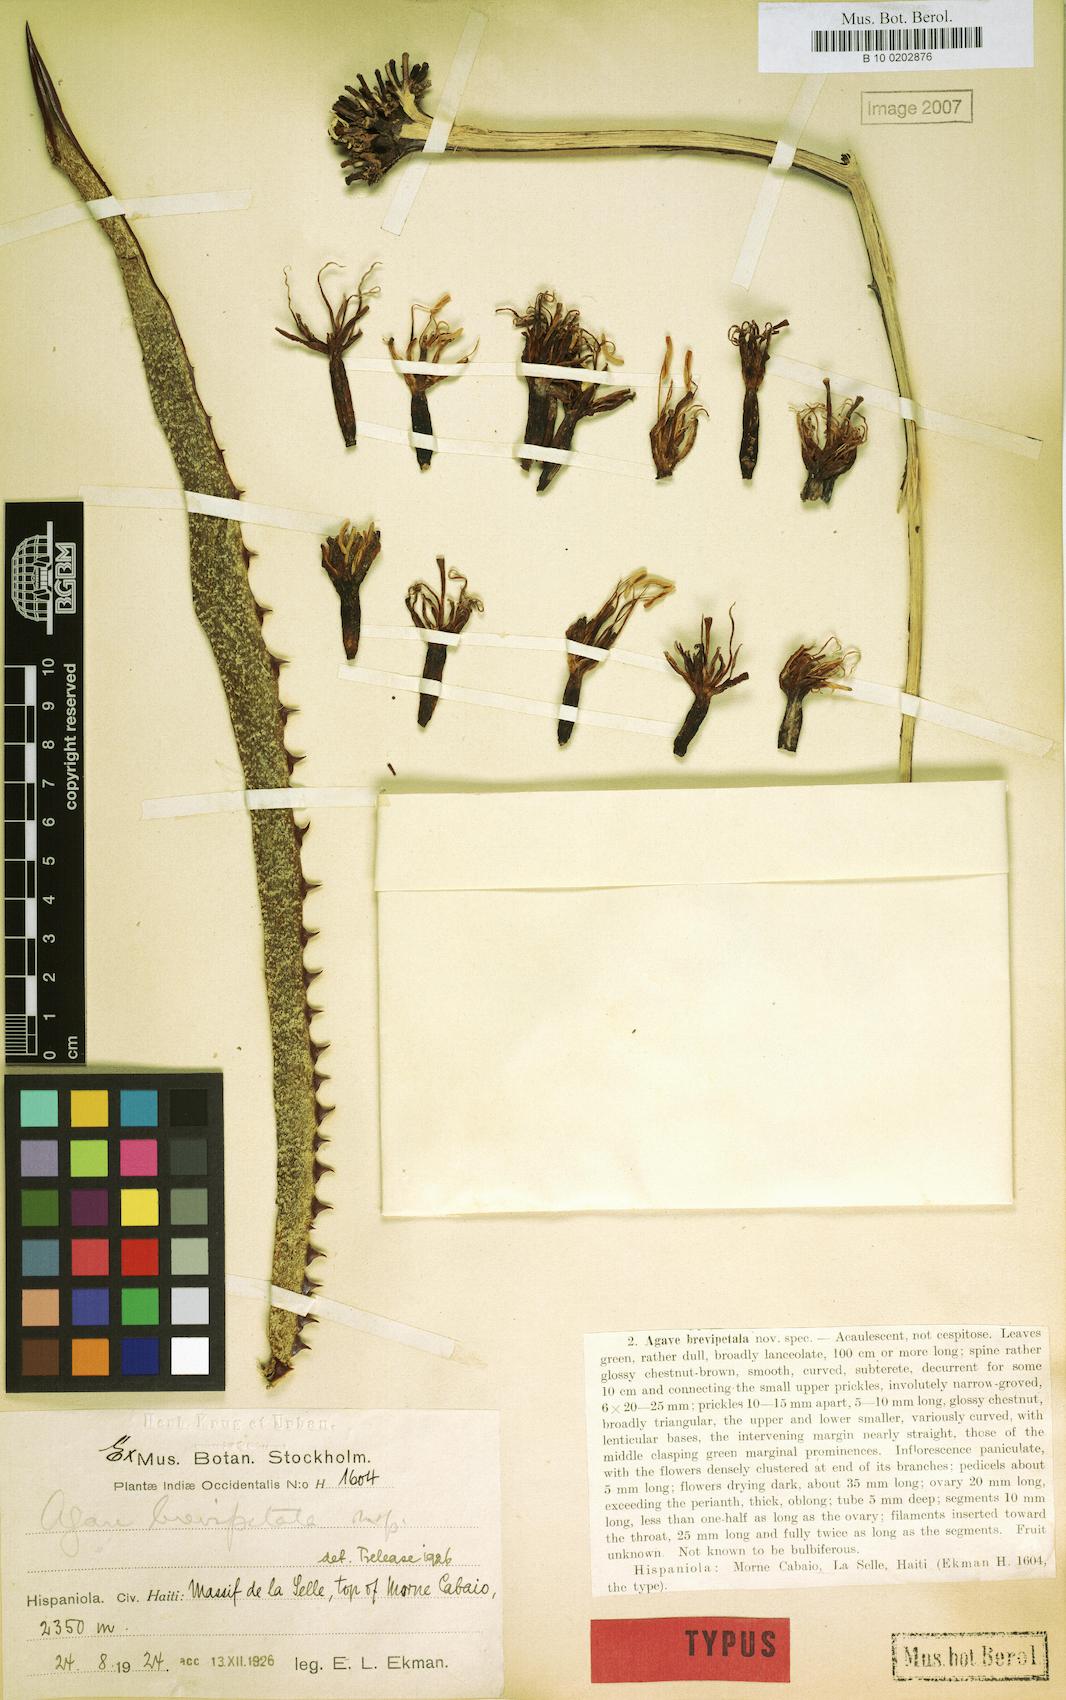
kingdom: Plantae
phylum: Tracheophyta
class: Liliopsida
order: Asparagales
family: Asparagaceae
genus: Agave
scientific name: Agave brevipetala
